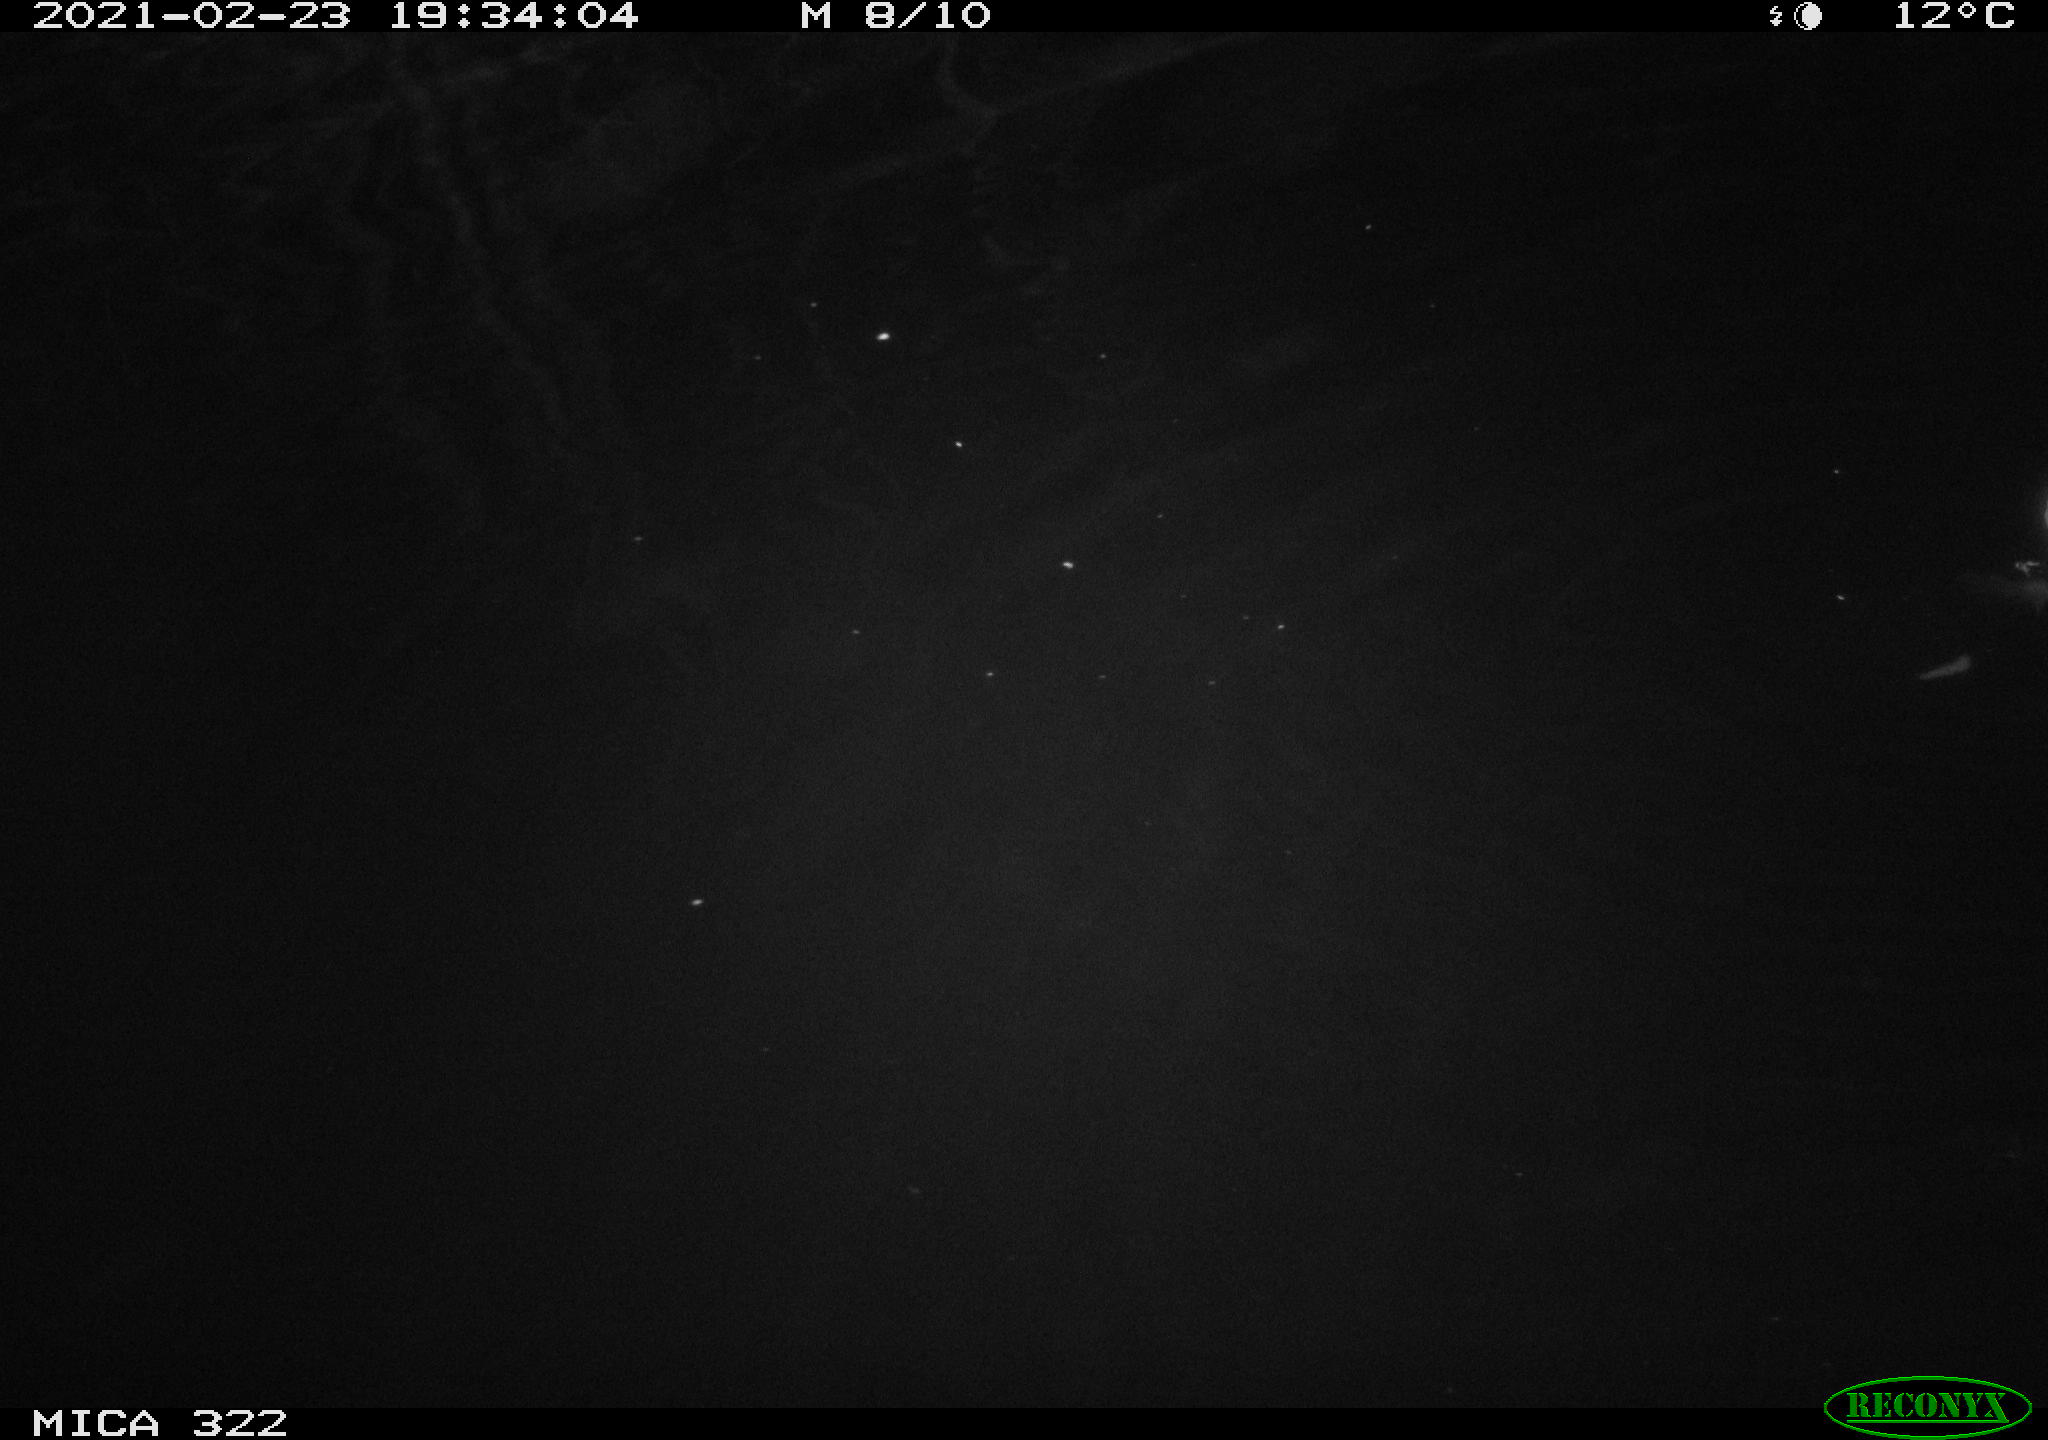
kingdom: Animalia
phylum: Chordata
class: Aves
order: Anseriformes
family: Anatidae
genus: Anas
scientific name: Anas platyrhynchos
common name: Mallard
